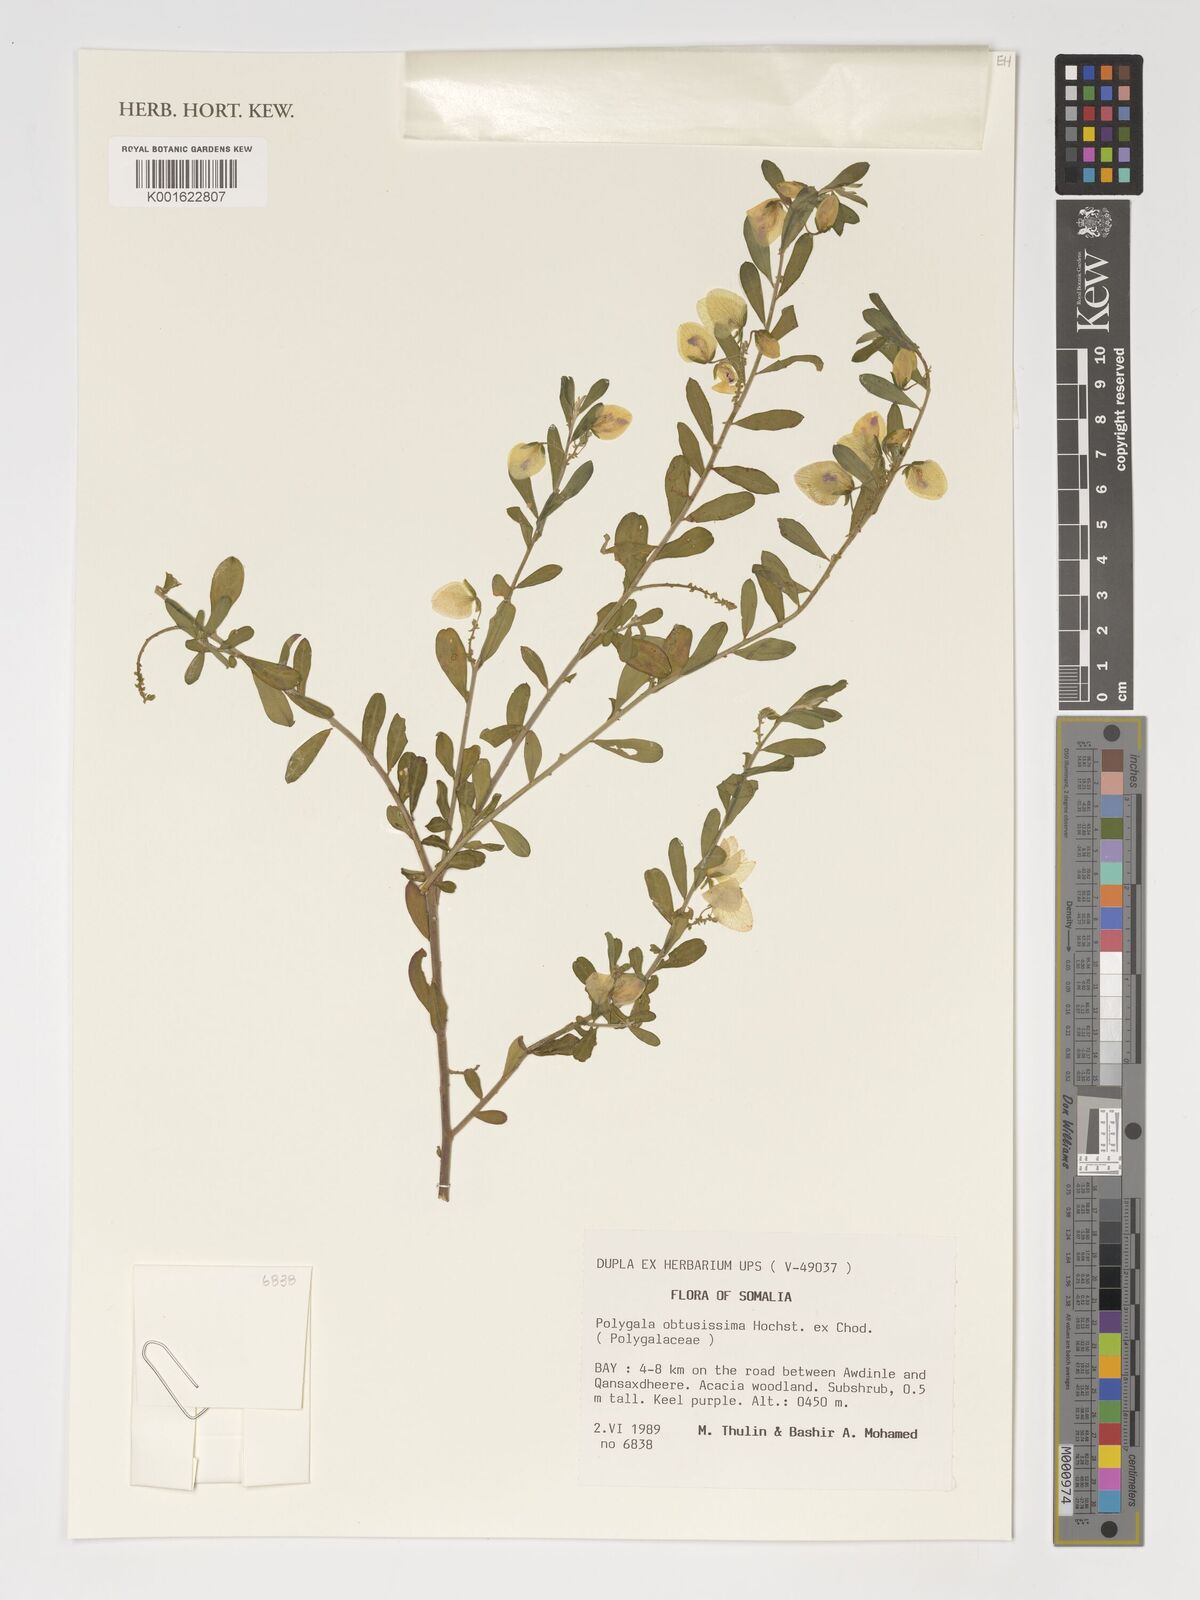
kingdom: Plantae
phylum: Tracheophyta
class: Magnoliopsida
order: Fabales
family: Polygalaceae
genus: Polygala
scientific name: Polygala obtusissima
